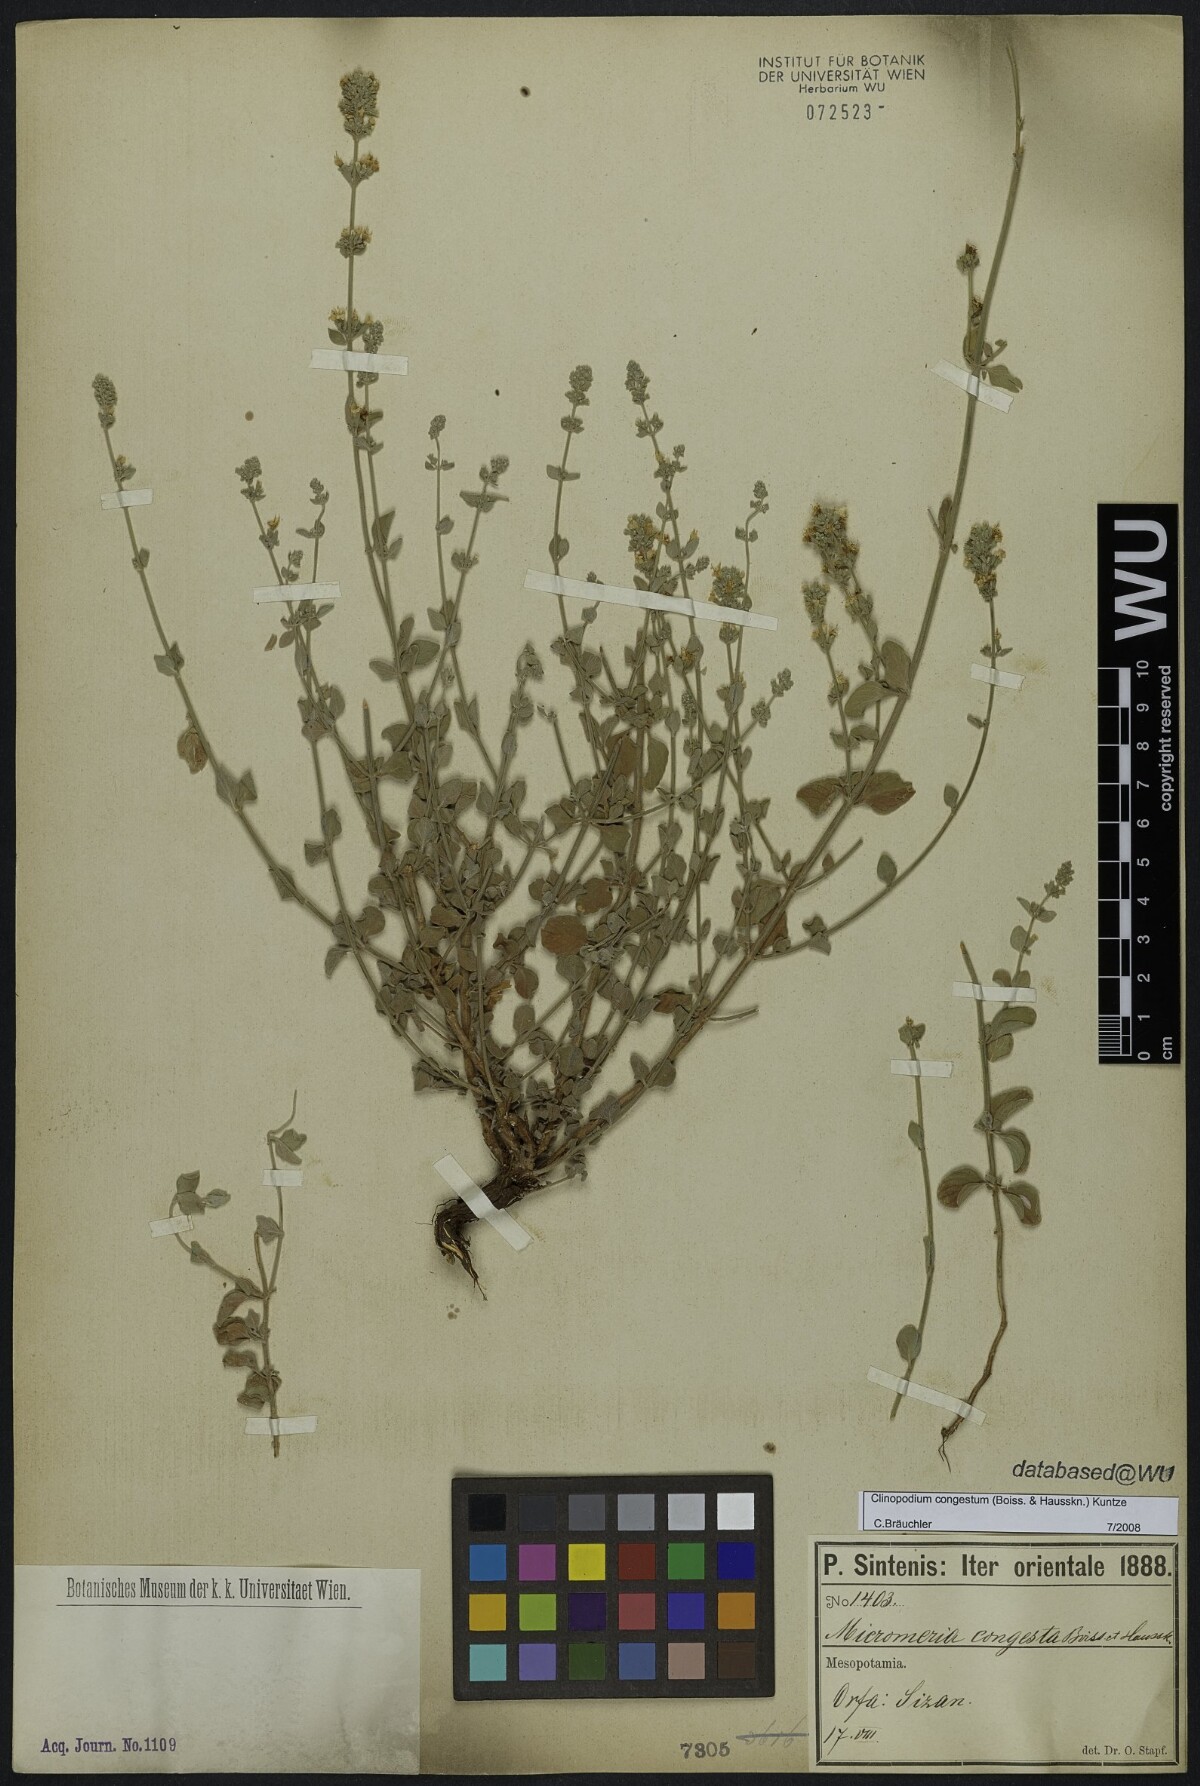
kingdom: Plantae
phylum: Tracheophyta
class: Magnoliopsida
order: Lamiales
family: Lamiaceae
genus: Clinopodium
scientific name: Clinopodium congestum
